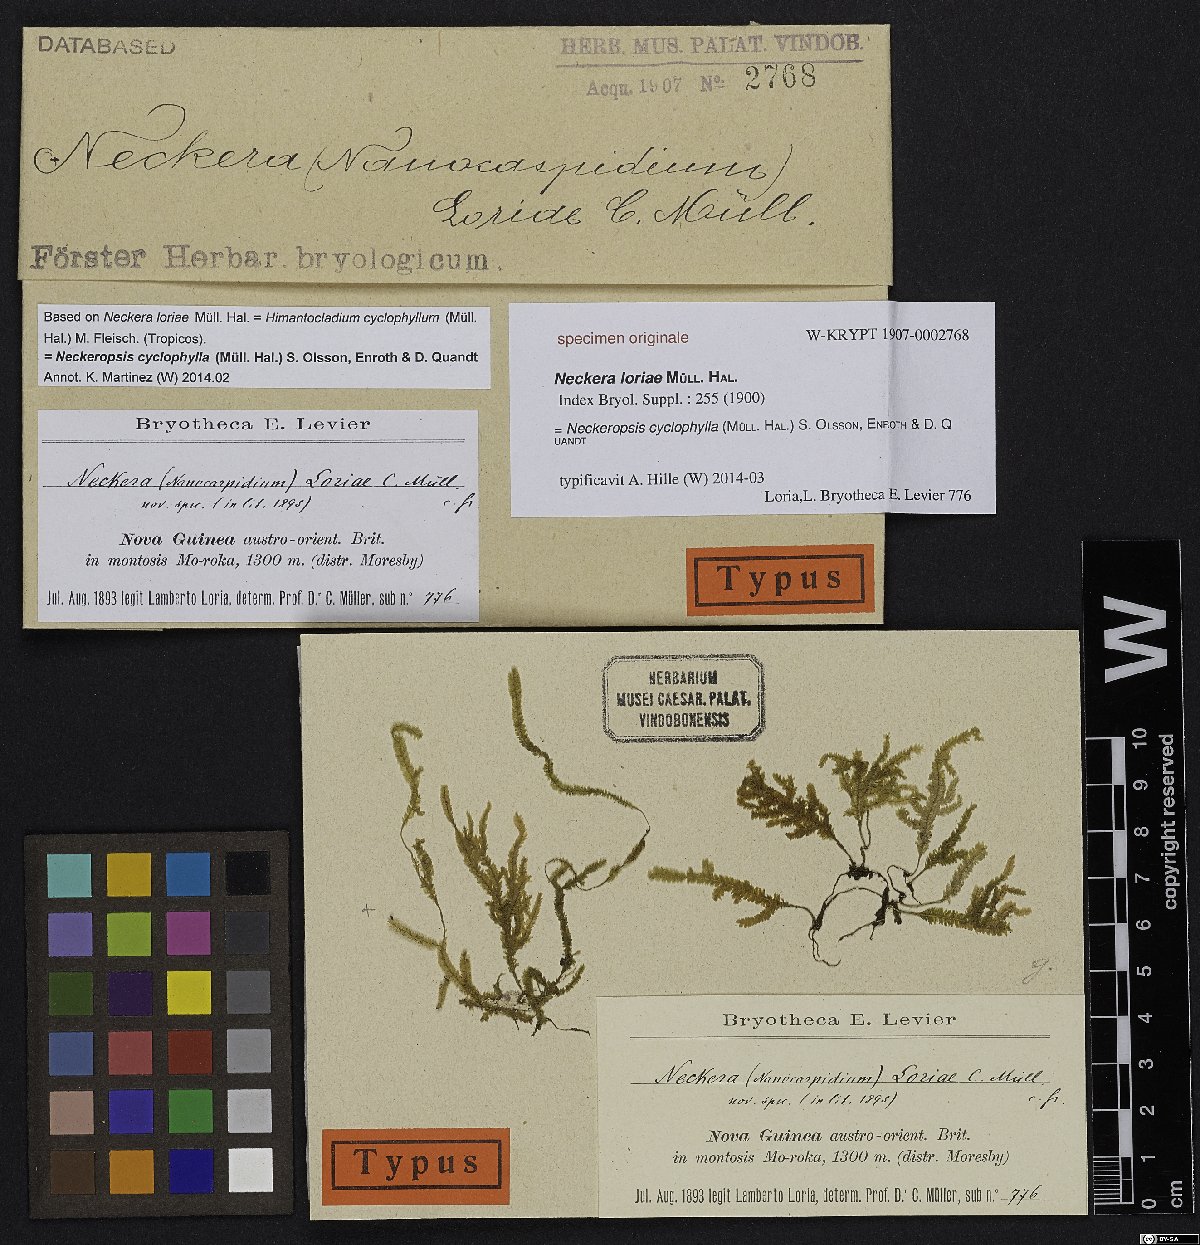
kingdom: Plantae
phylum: Bryophyta
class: Bryopsida
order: Hypnales
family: Neckeraceae
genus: Neckeropsis
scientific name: Neckeropsis cyclophylla
